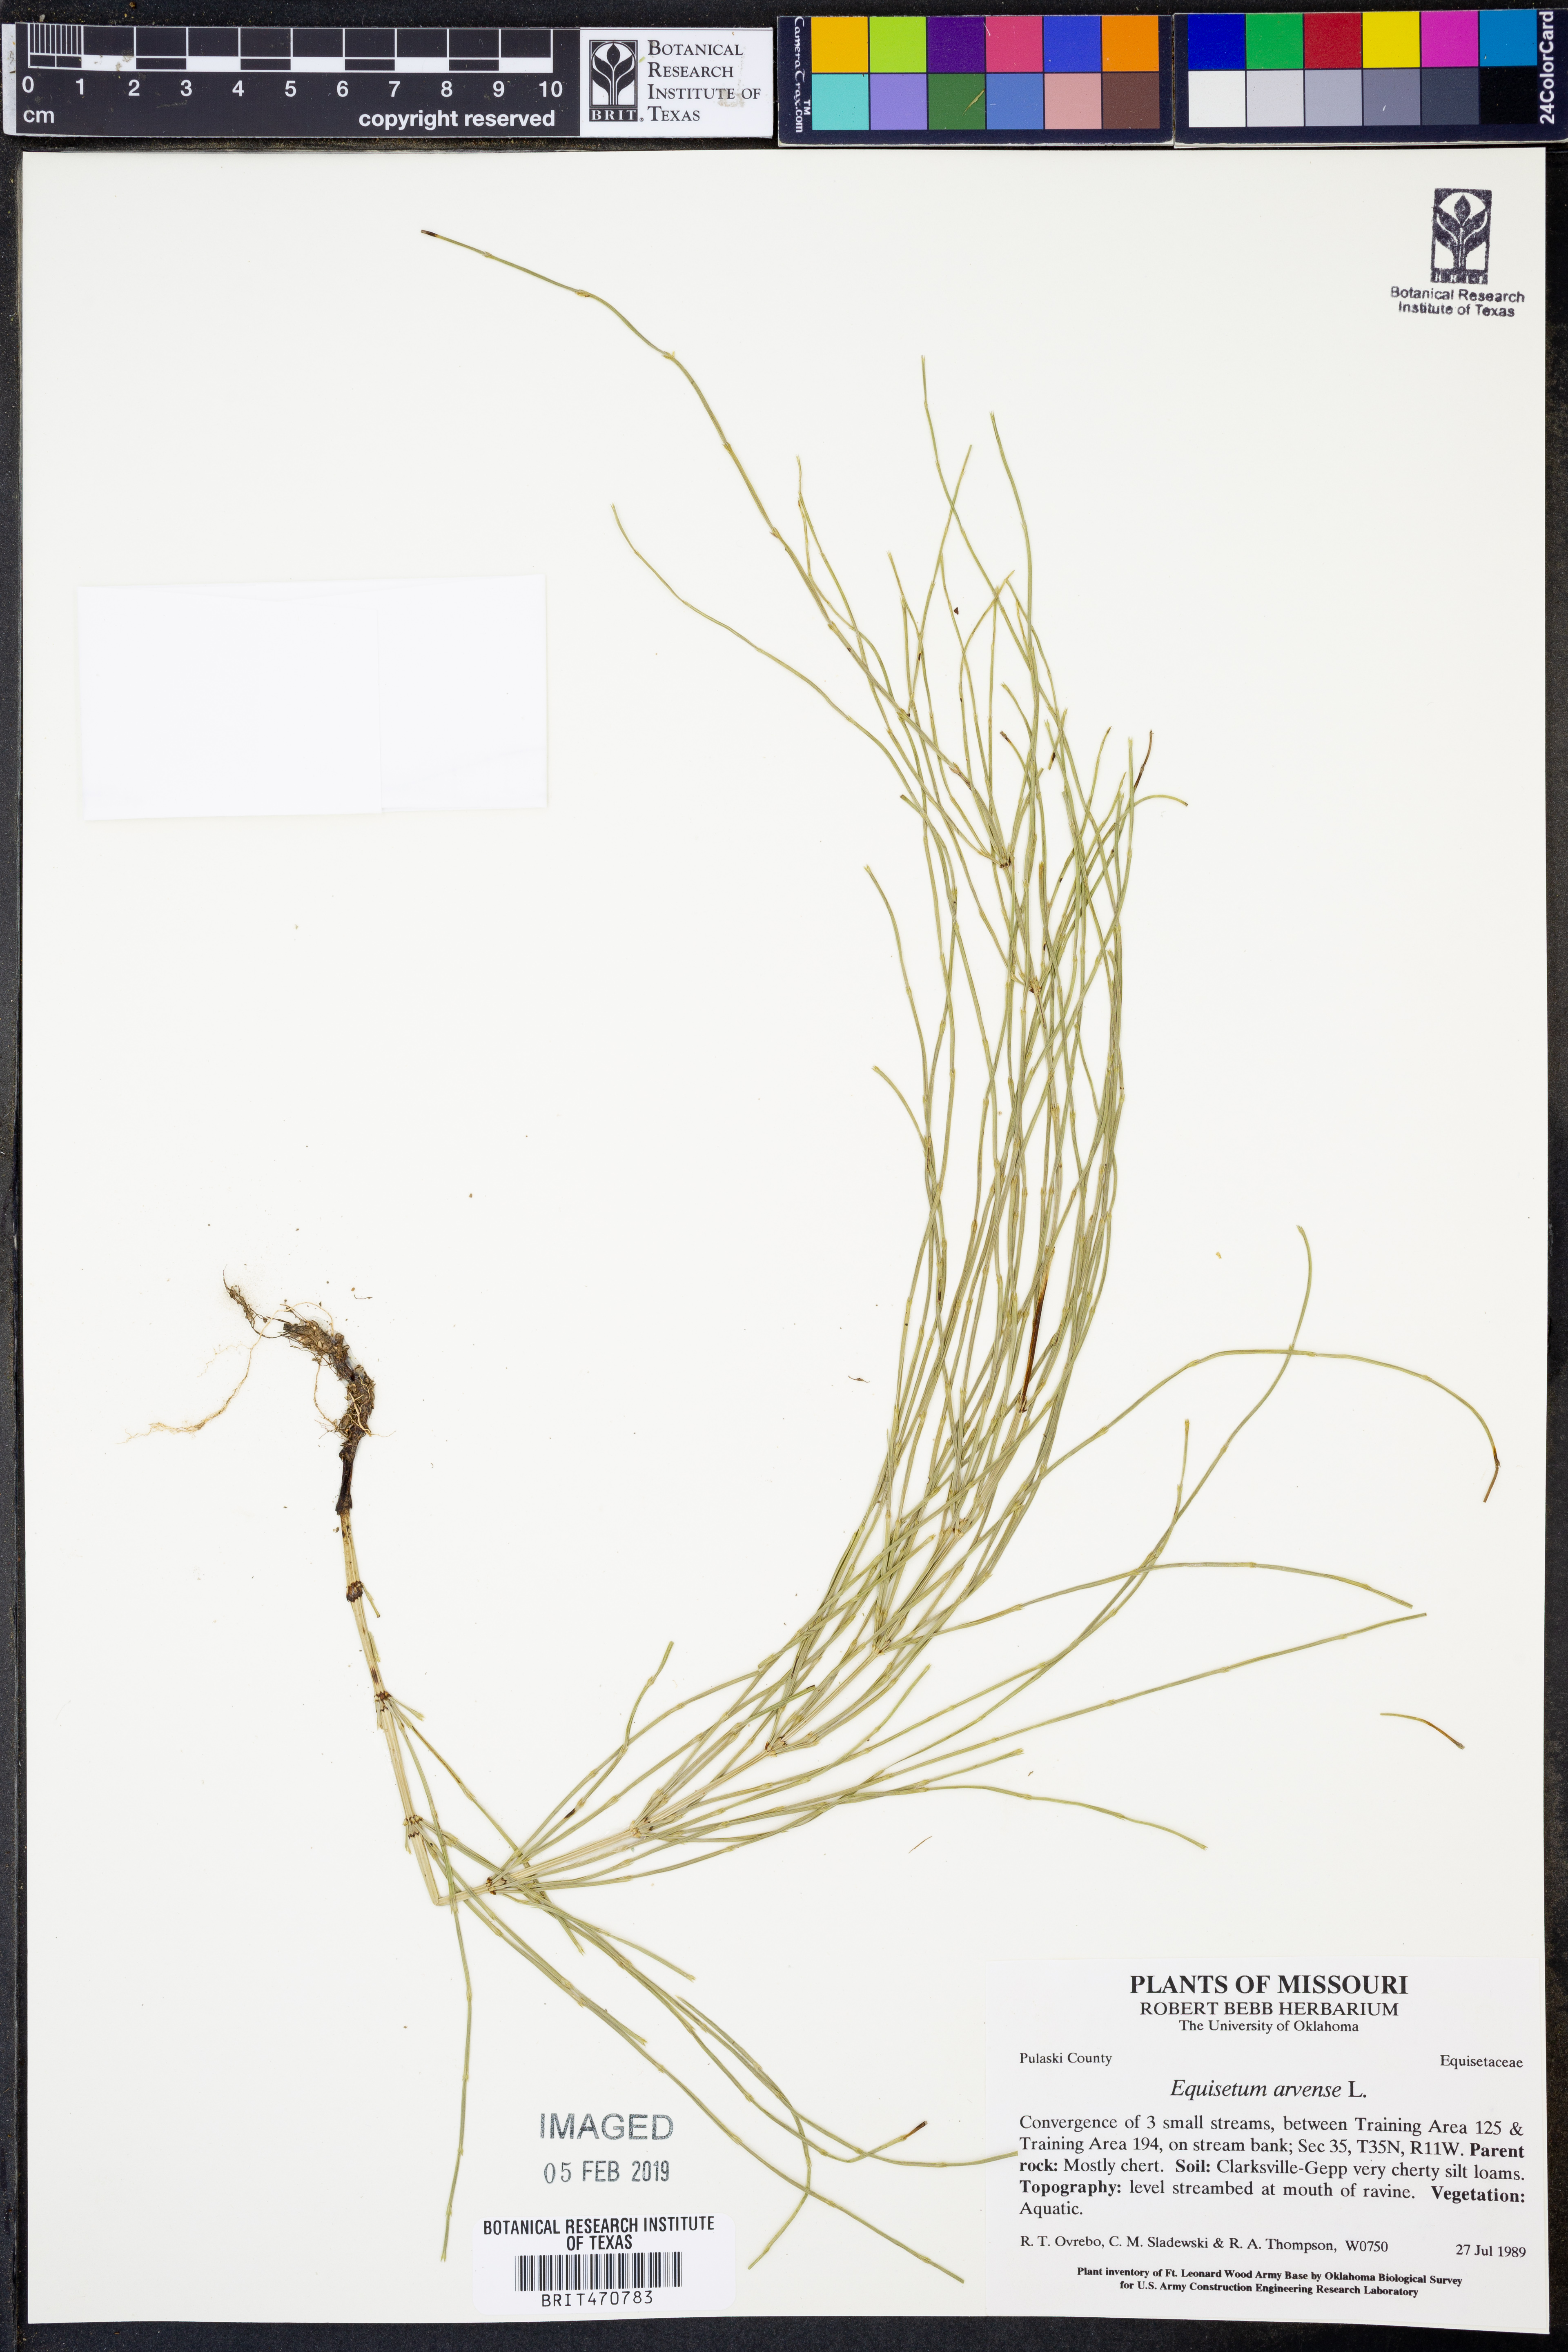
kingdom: Plantae
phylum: Tracheophyta
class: Polypodiopsida
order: Equisetales
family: Equisetaceae
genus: Equisetum
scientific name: Equisetum arvense
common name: Field horsetail
